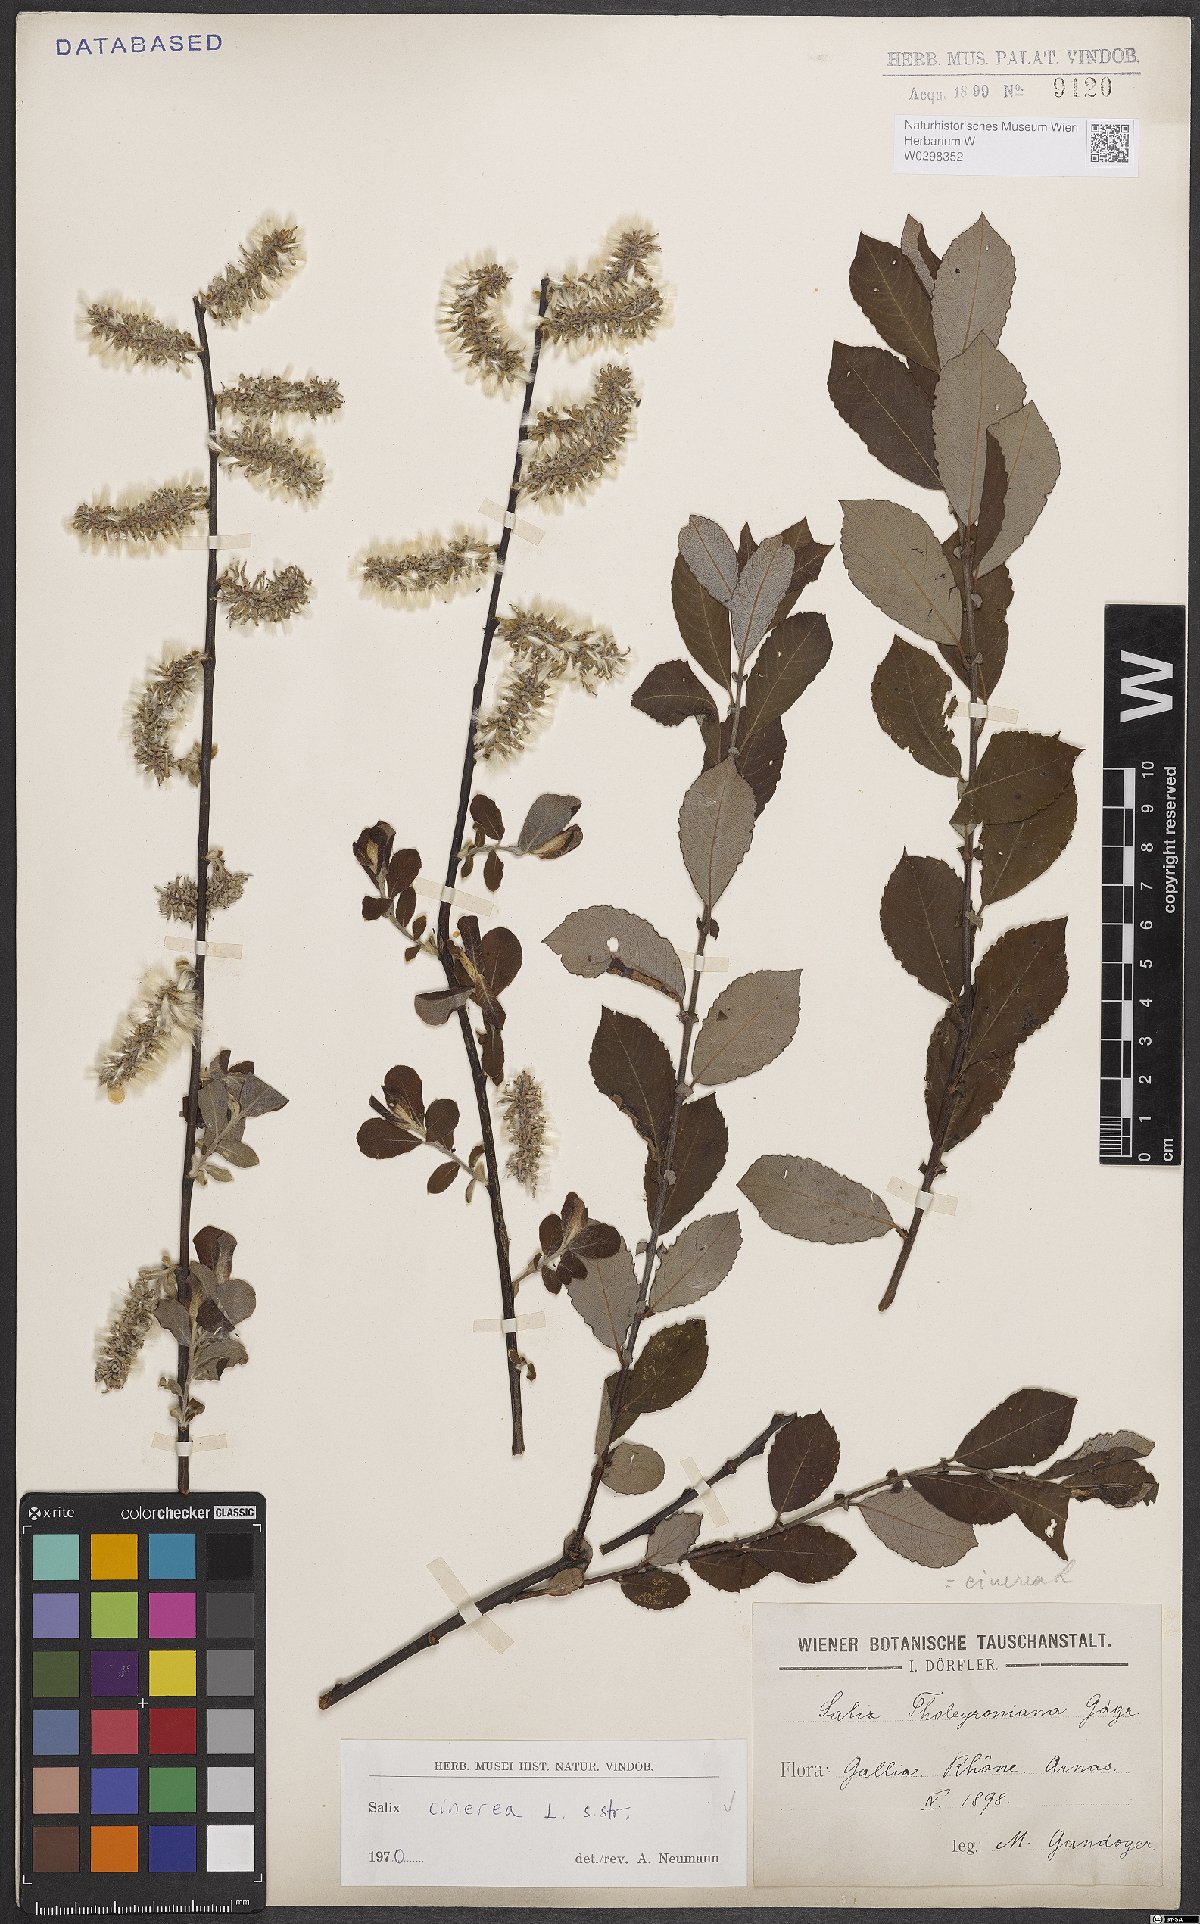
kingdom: Plantae
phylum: Tracheophyta
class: Magnoliopsida
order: Malpighiales
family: Salicaceae
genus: Salix
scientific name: Salix cinerea
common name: Common sallow
